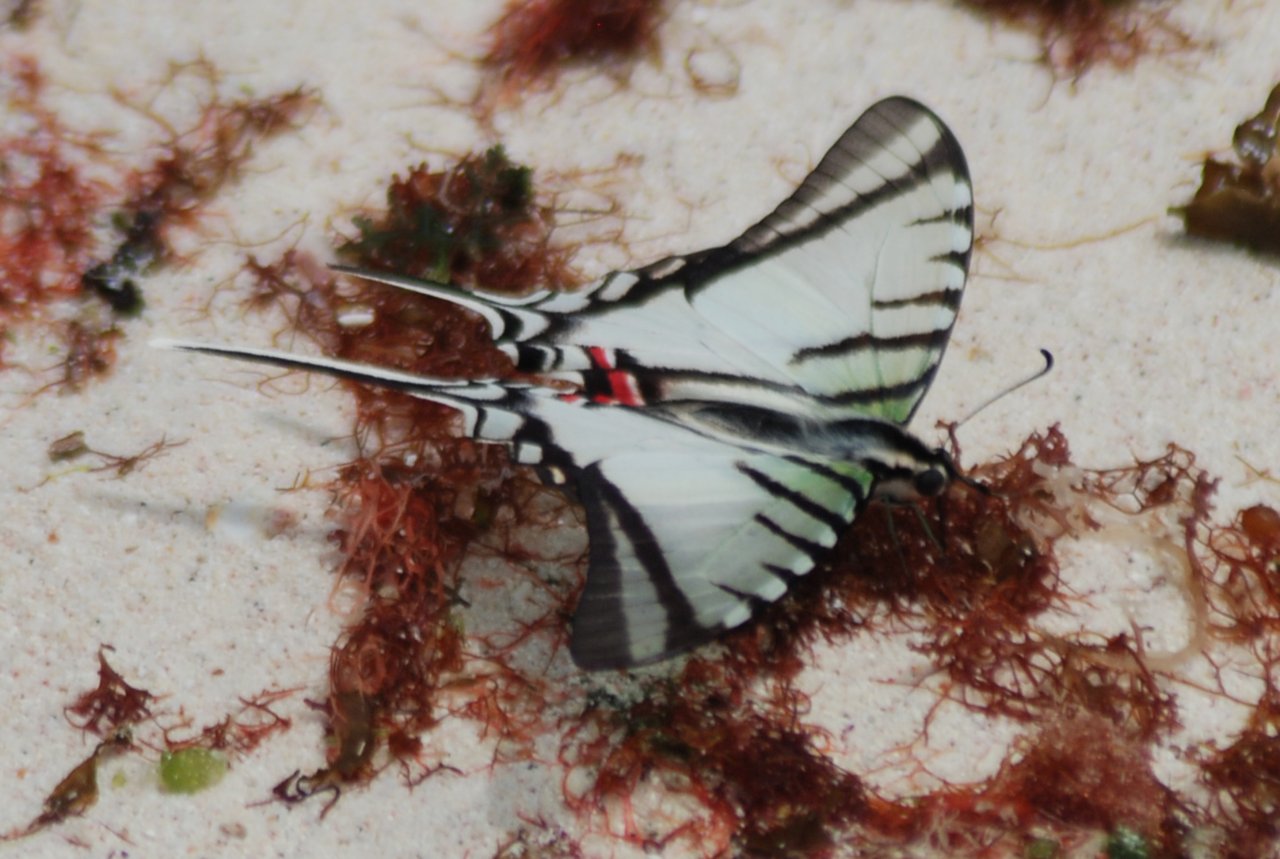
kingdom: Animalia
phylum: Arthropoda
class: Insecta
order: Lepidoptera
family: Papilionidae
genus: Eurytides
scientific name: Eurytides
